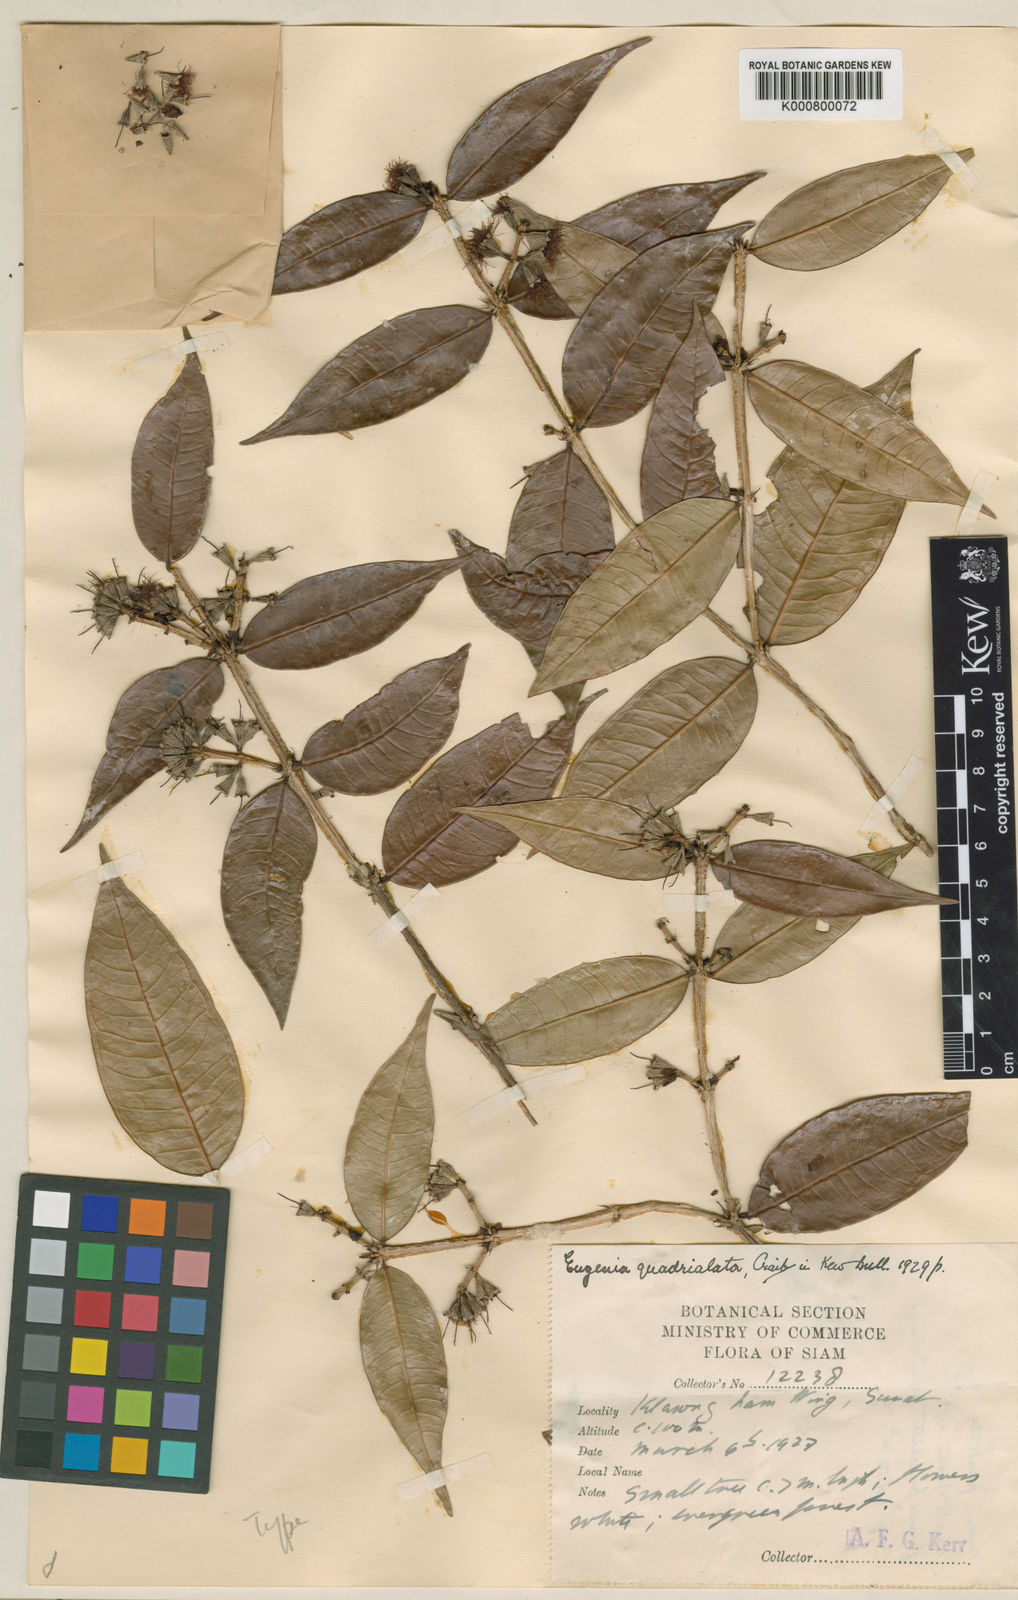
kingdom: Plantae
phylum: Tracheophyta
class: Magnoliopsida
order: Myrtales
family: Myrtaceae
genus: Syzygium
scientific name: Syzygium aksornae
